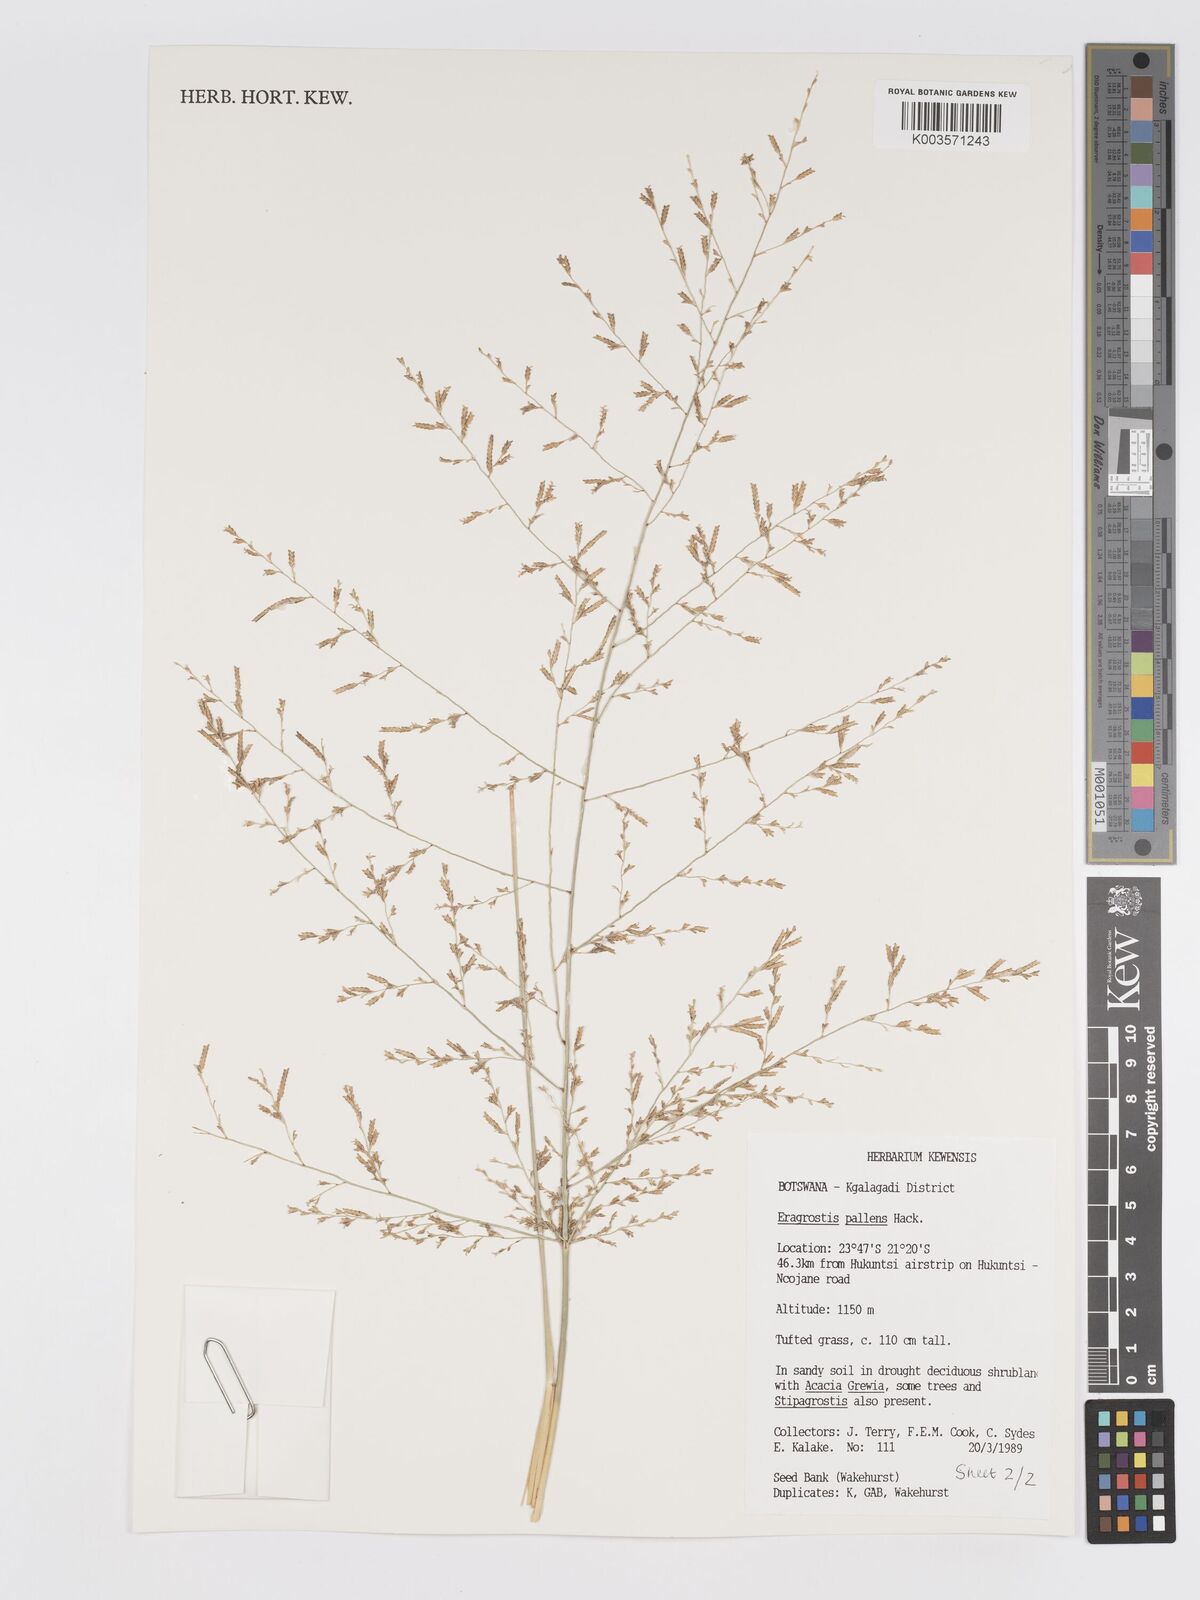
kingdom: Plantae
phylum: Tracheophyta
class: Liliopsida
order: Poales
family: Poaceae
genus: Eragrostis
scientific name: Eragrostis pallens
